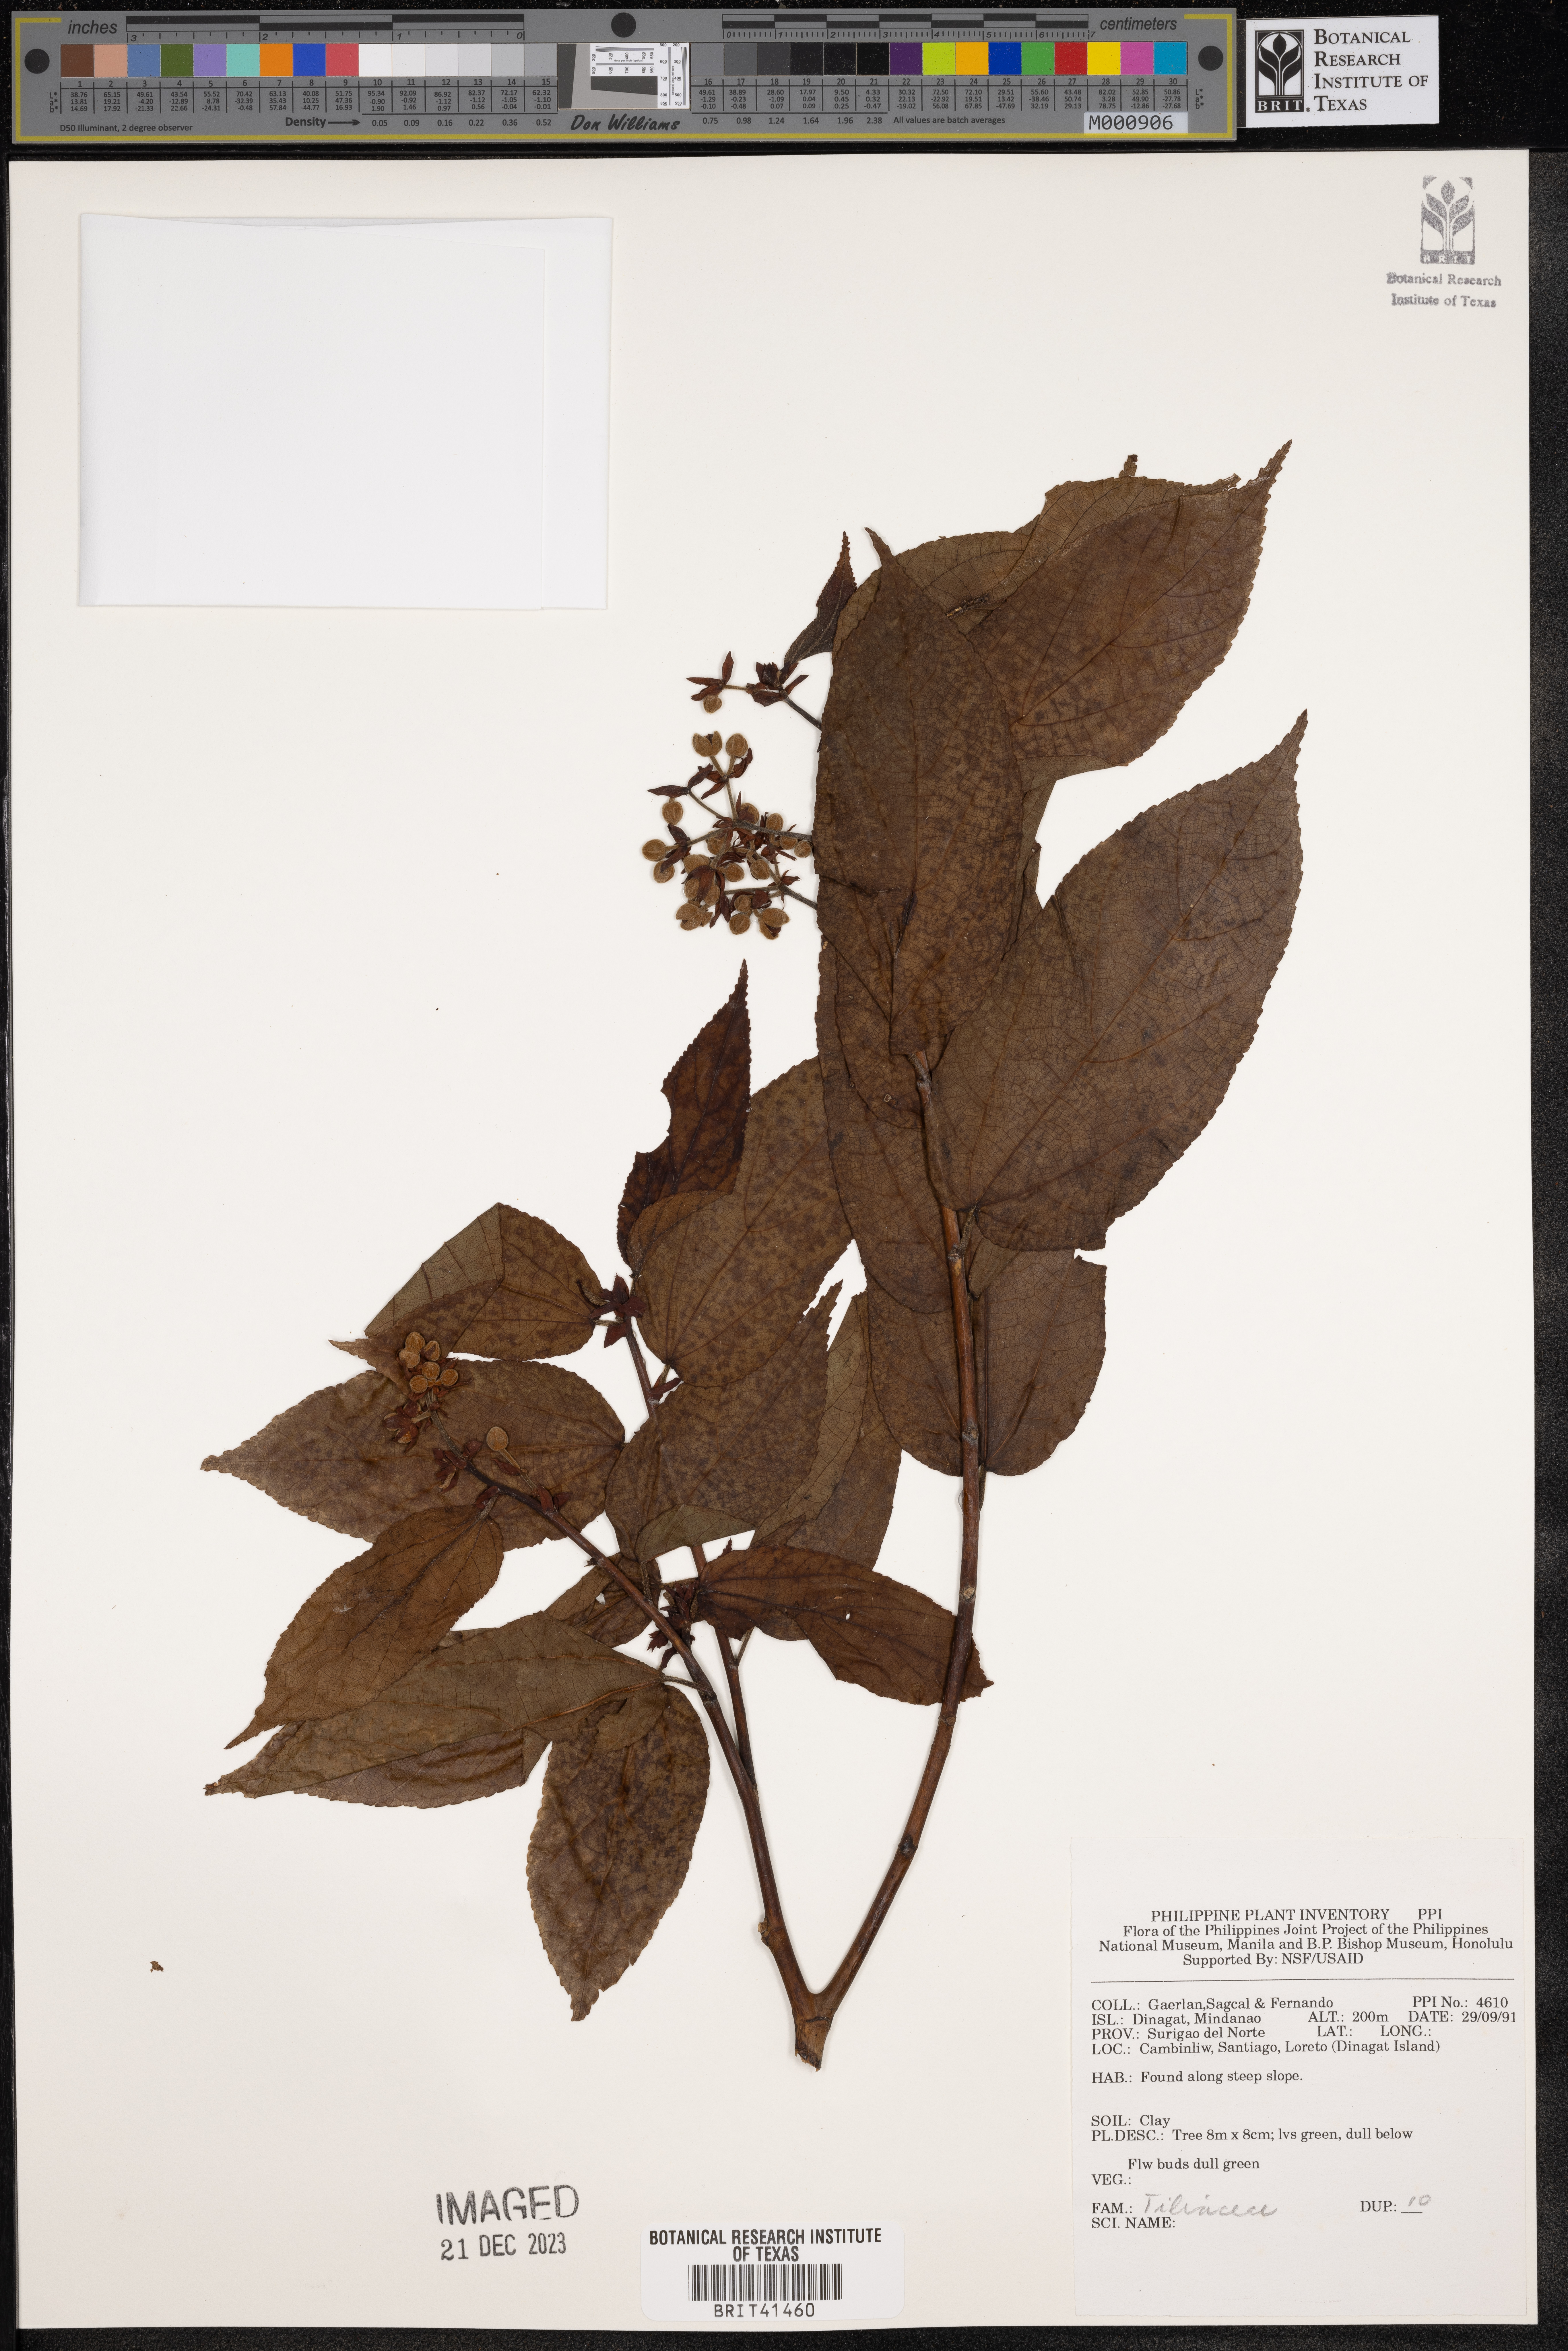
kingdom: Plantae
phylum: Tracheophyta
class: Magnoliopsida
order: Malvales
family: Tiliaceae
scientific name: Tiliaceae
